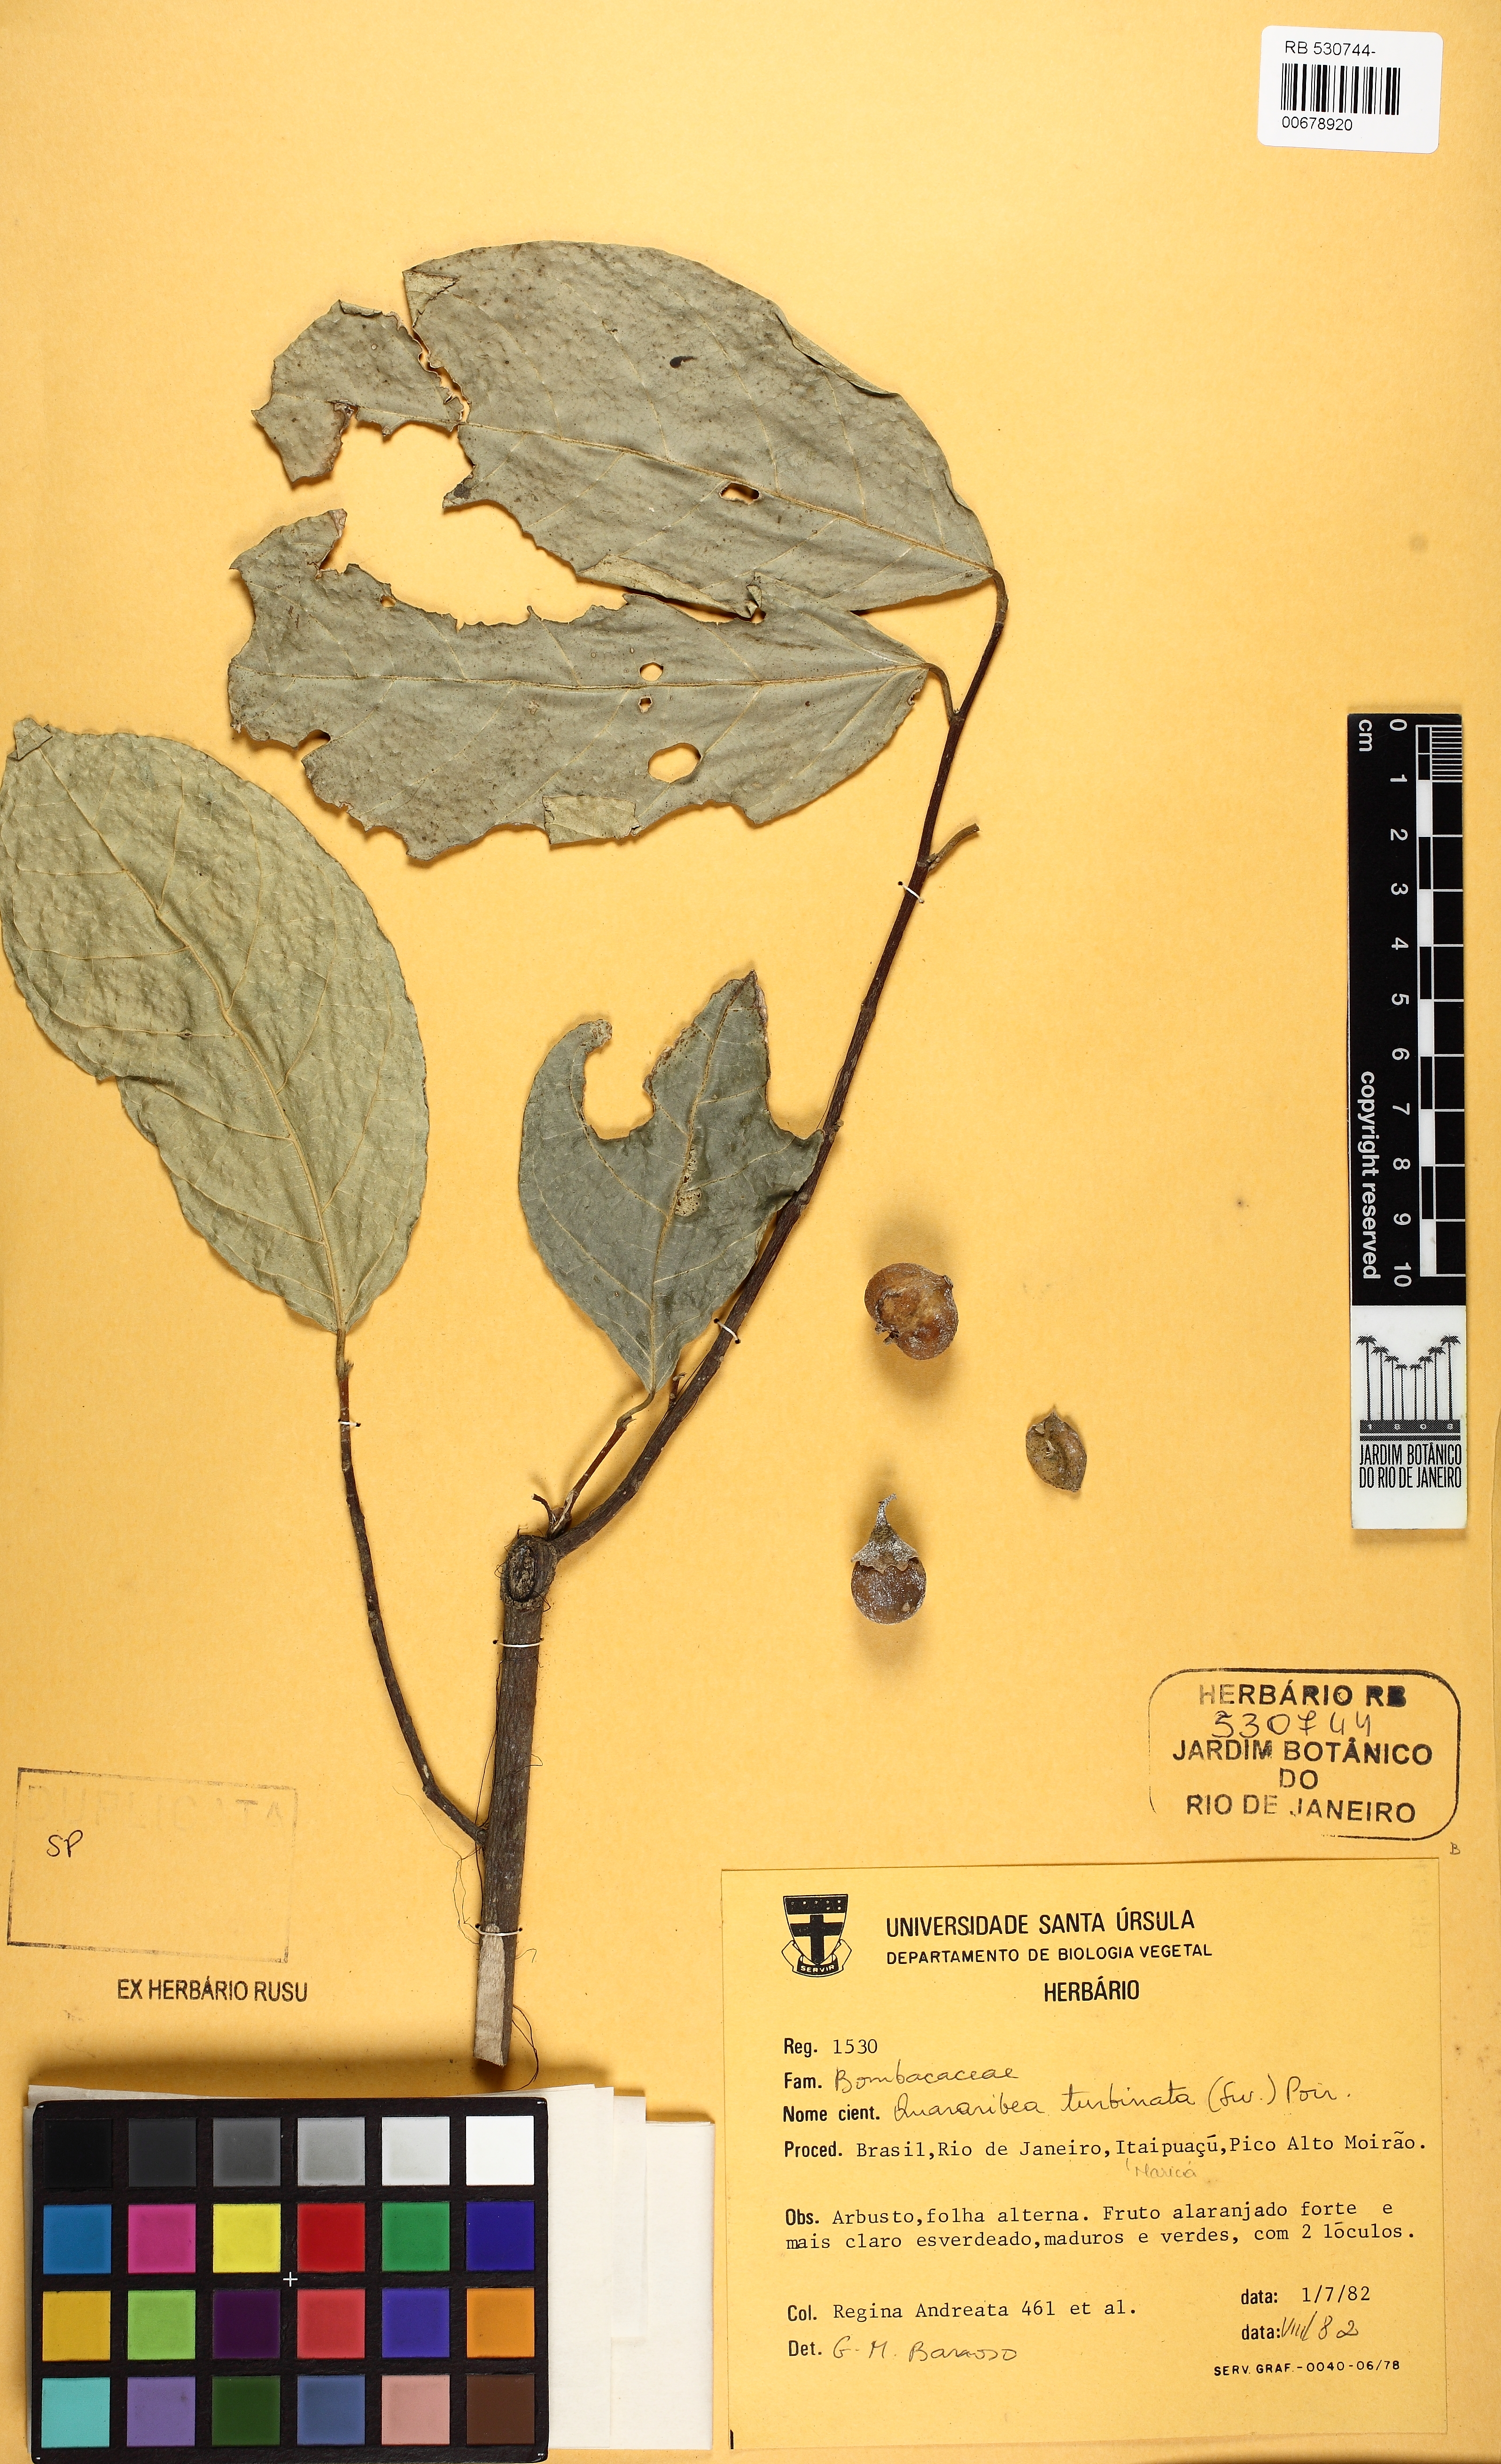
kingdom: Plantae
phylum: Tracheophyta
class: Magnoliopsida
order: Malvales
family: Malvaceae
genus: Quararibea
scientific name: Quararibea turbinata
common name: Swizzlestick-tree
